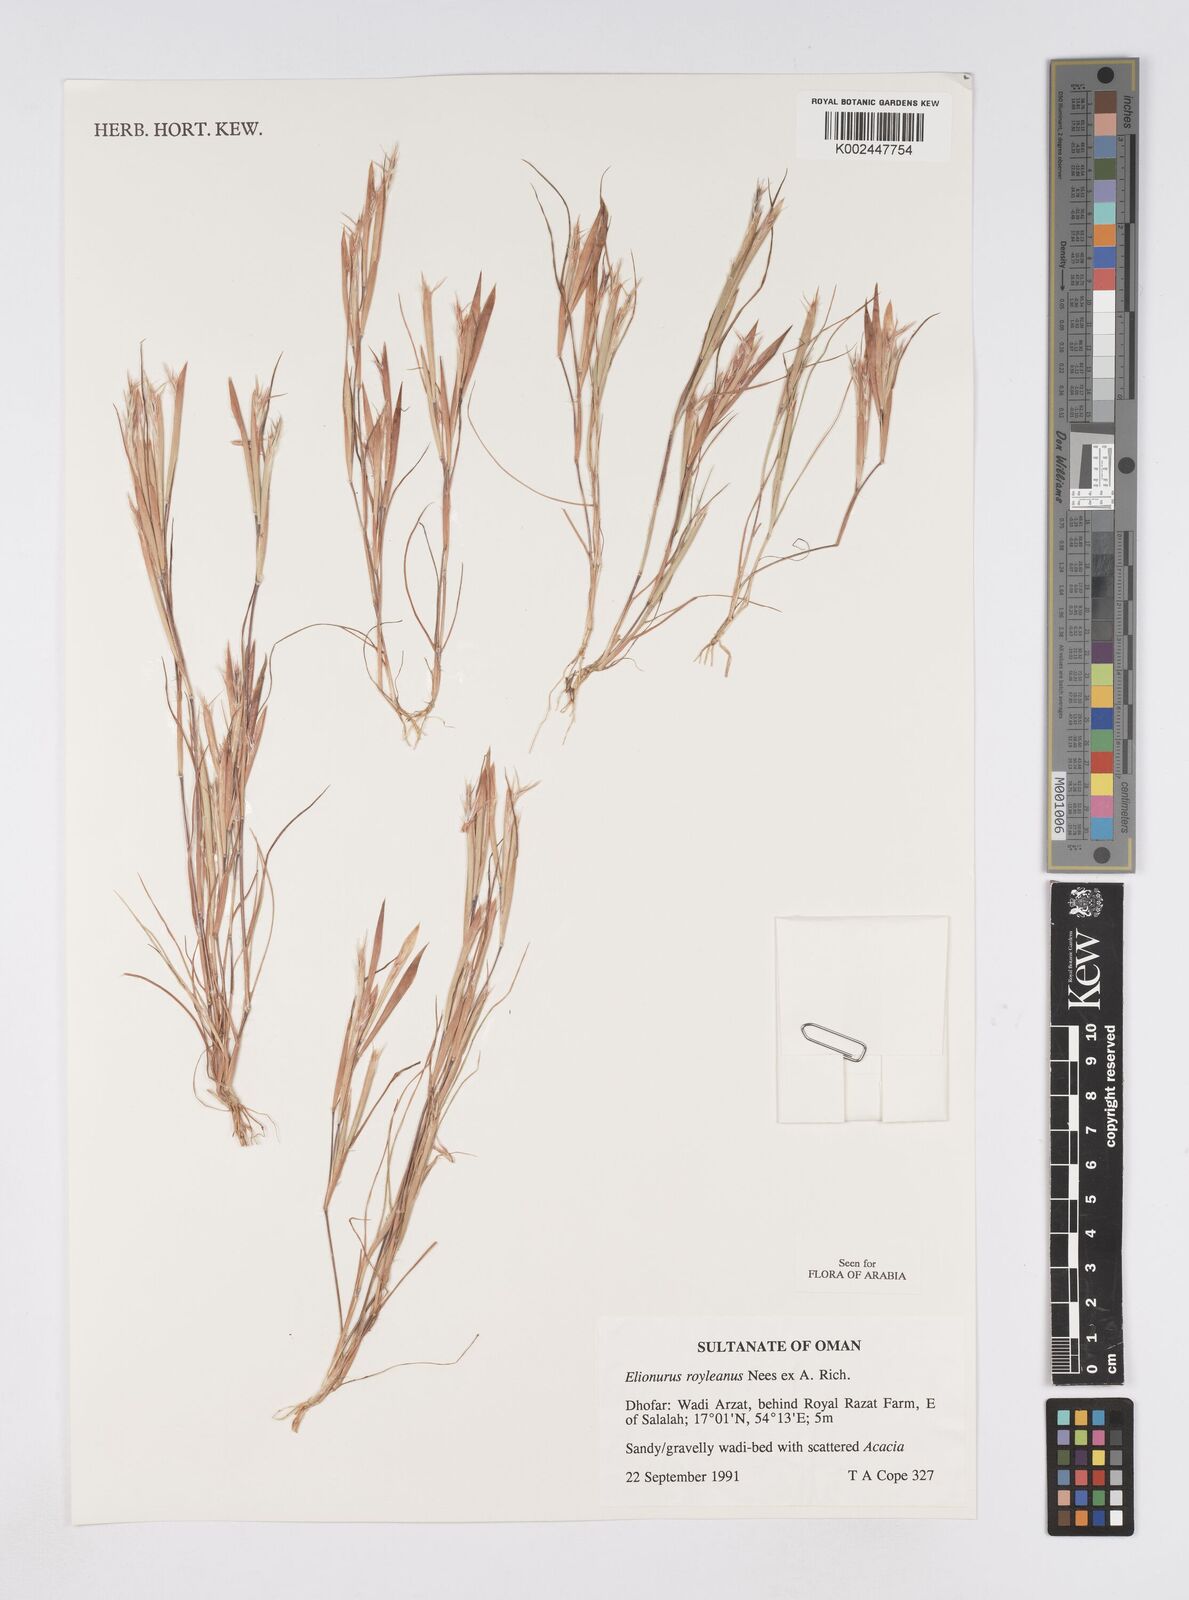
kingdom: Plantae
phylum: Tracheophyta
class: Liliopsida
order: Poales
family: Poaceae
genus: Elionurus
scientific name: Elionurus royleanus
